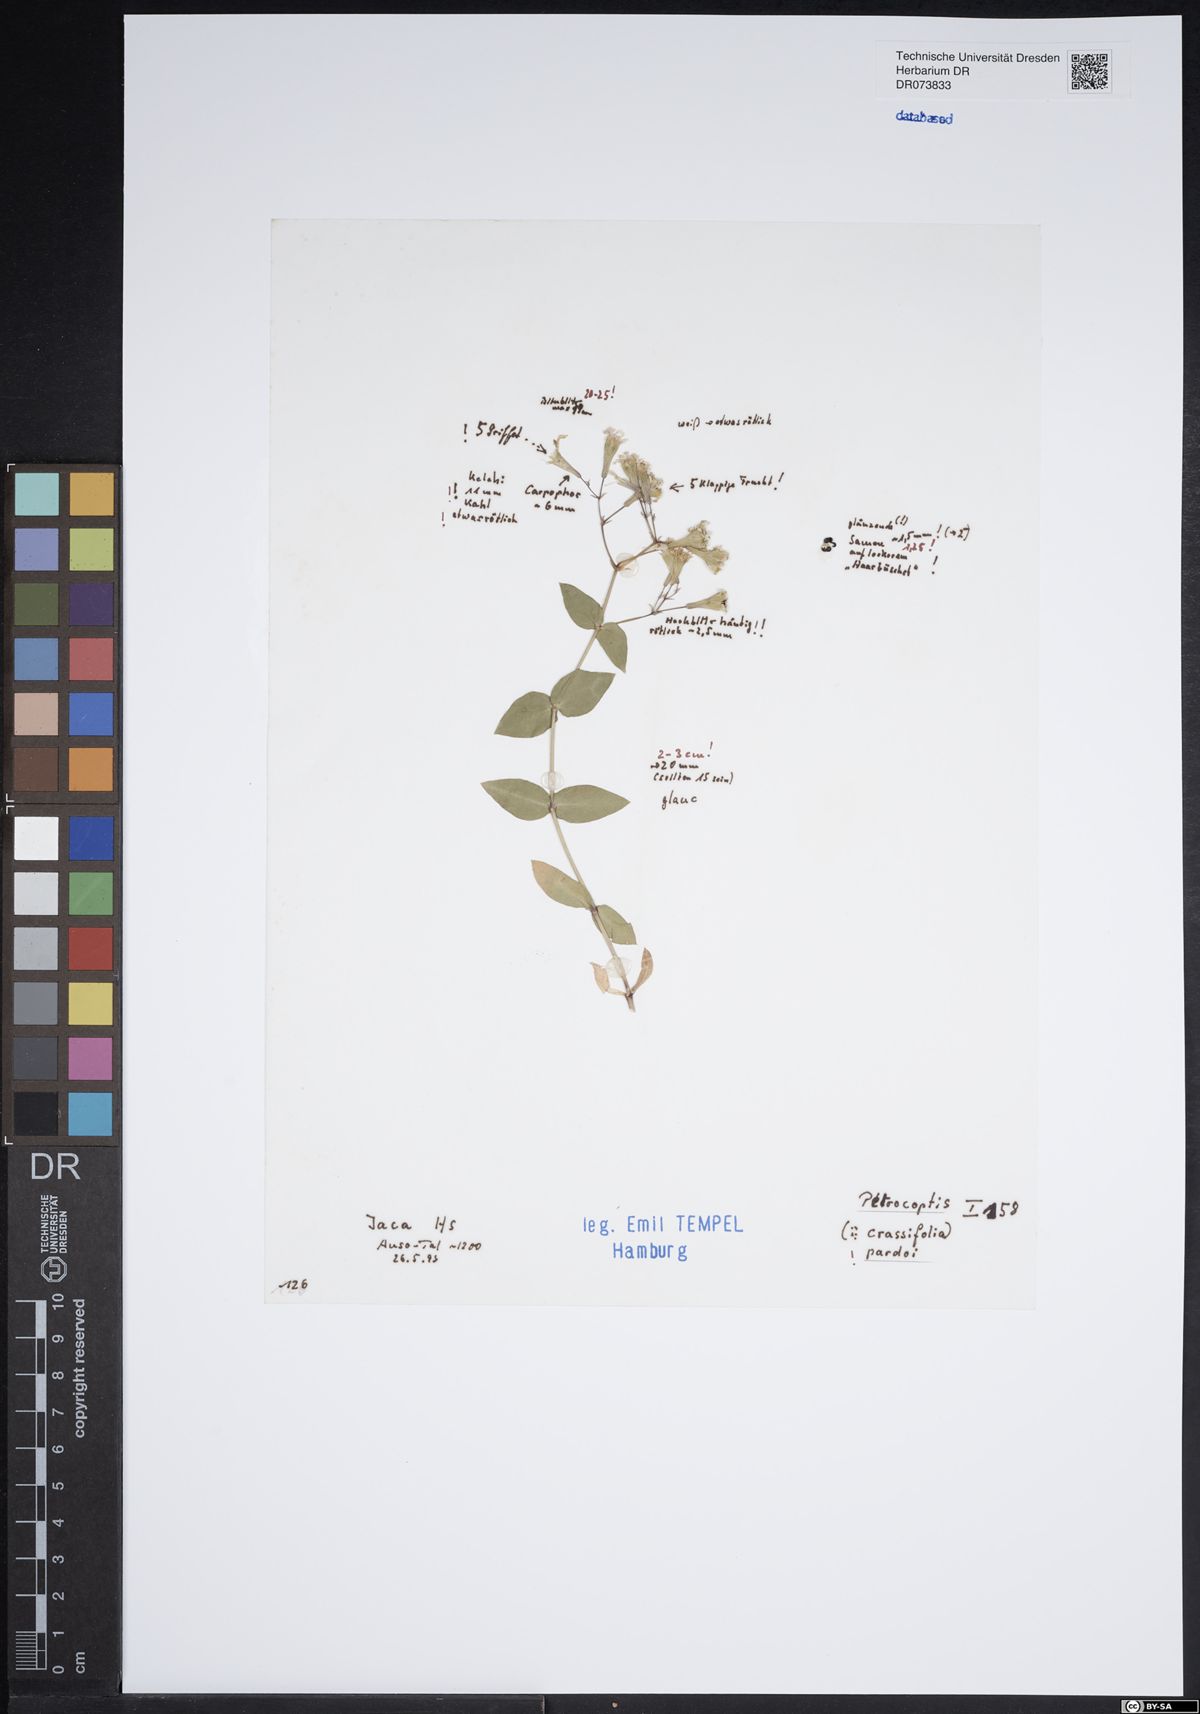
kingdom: Plantae
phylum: Tracheophyta
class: Magnoliopsida
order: Caryophyllales
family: Caryophyllaceae
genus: Petrocoptis
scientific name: Petrocoptis pardoi
